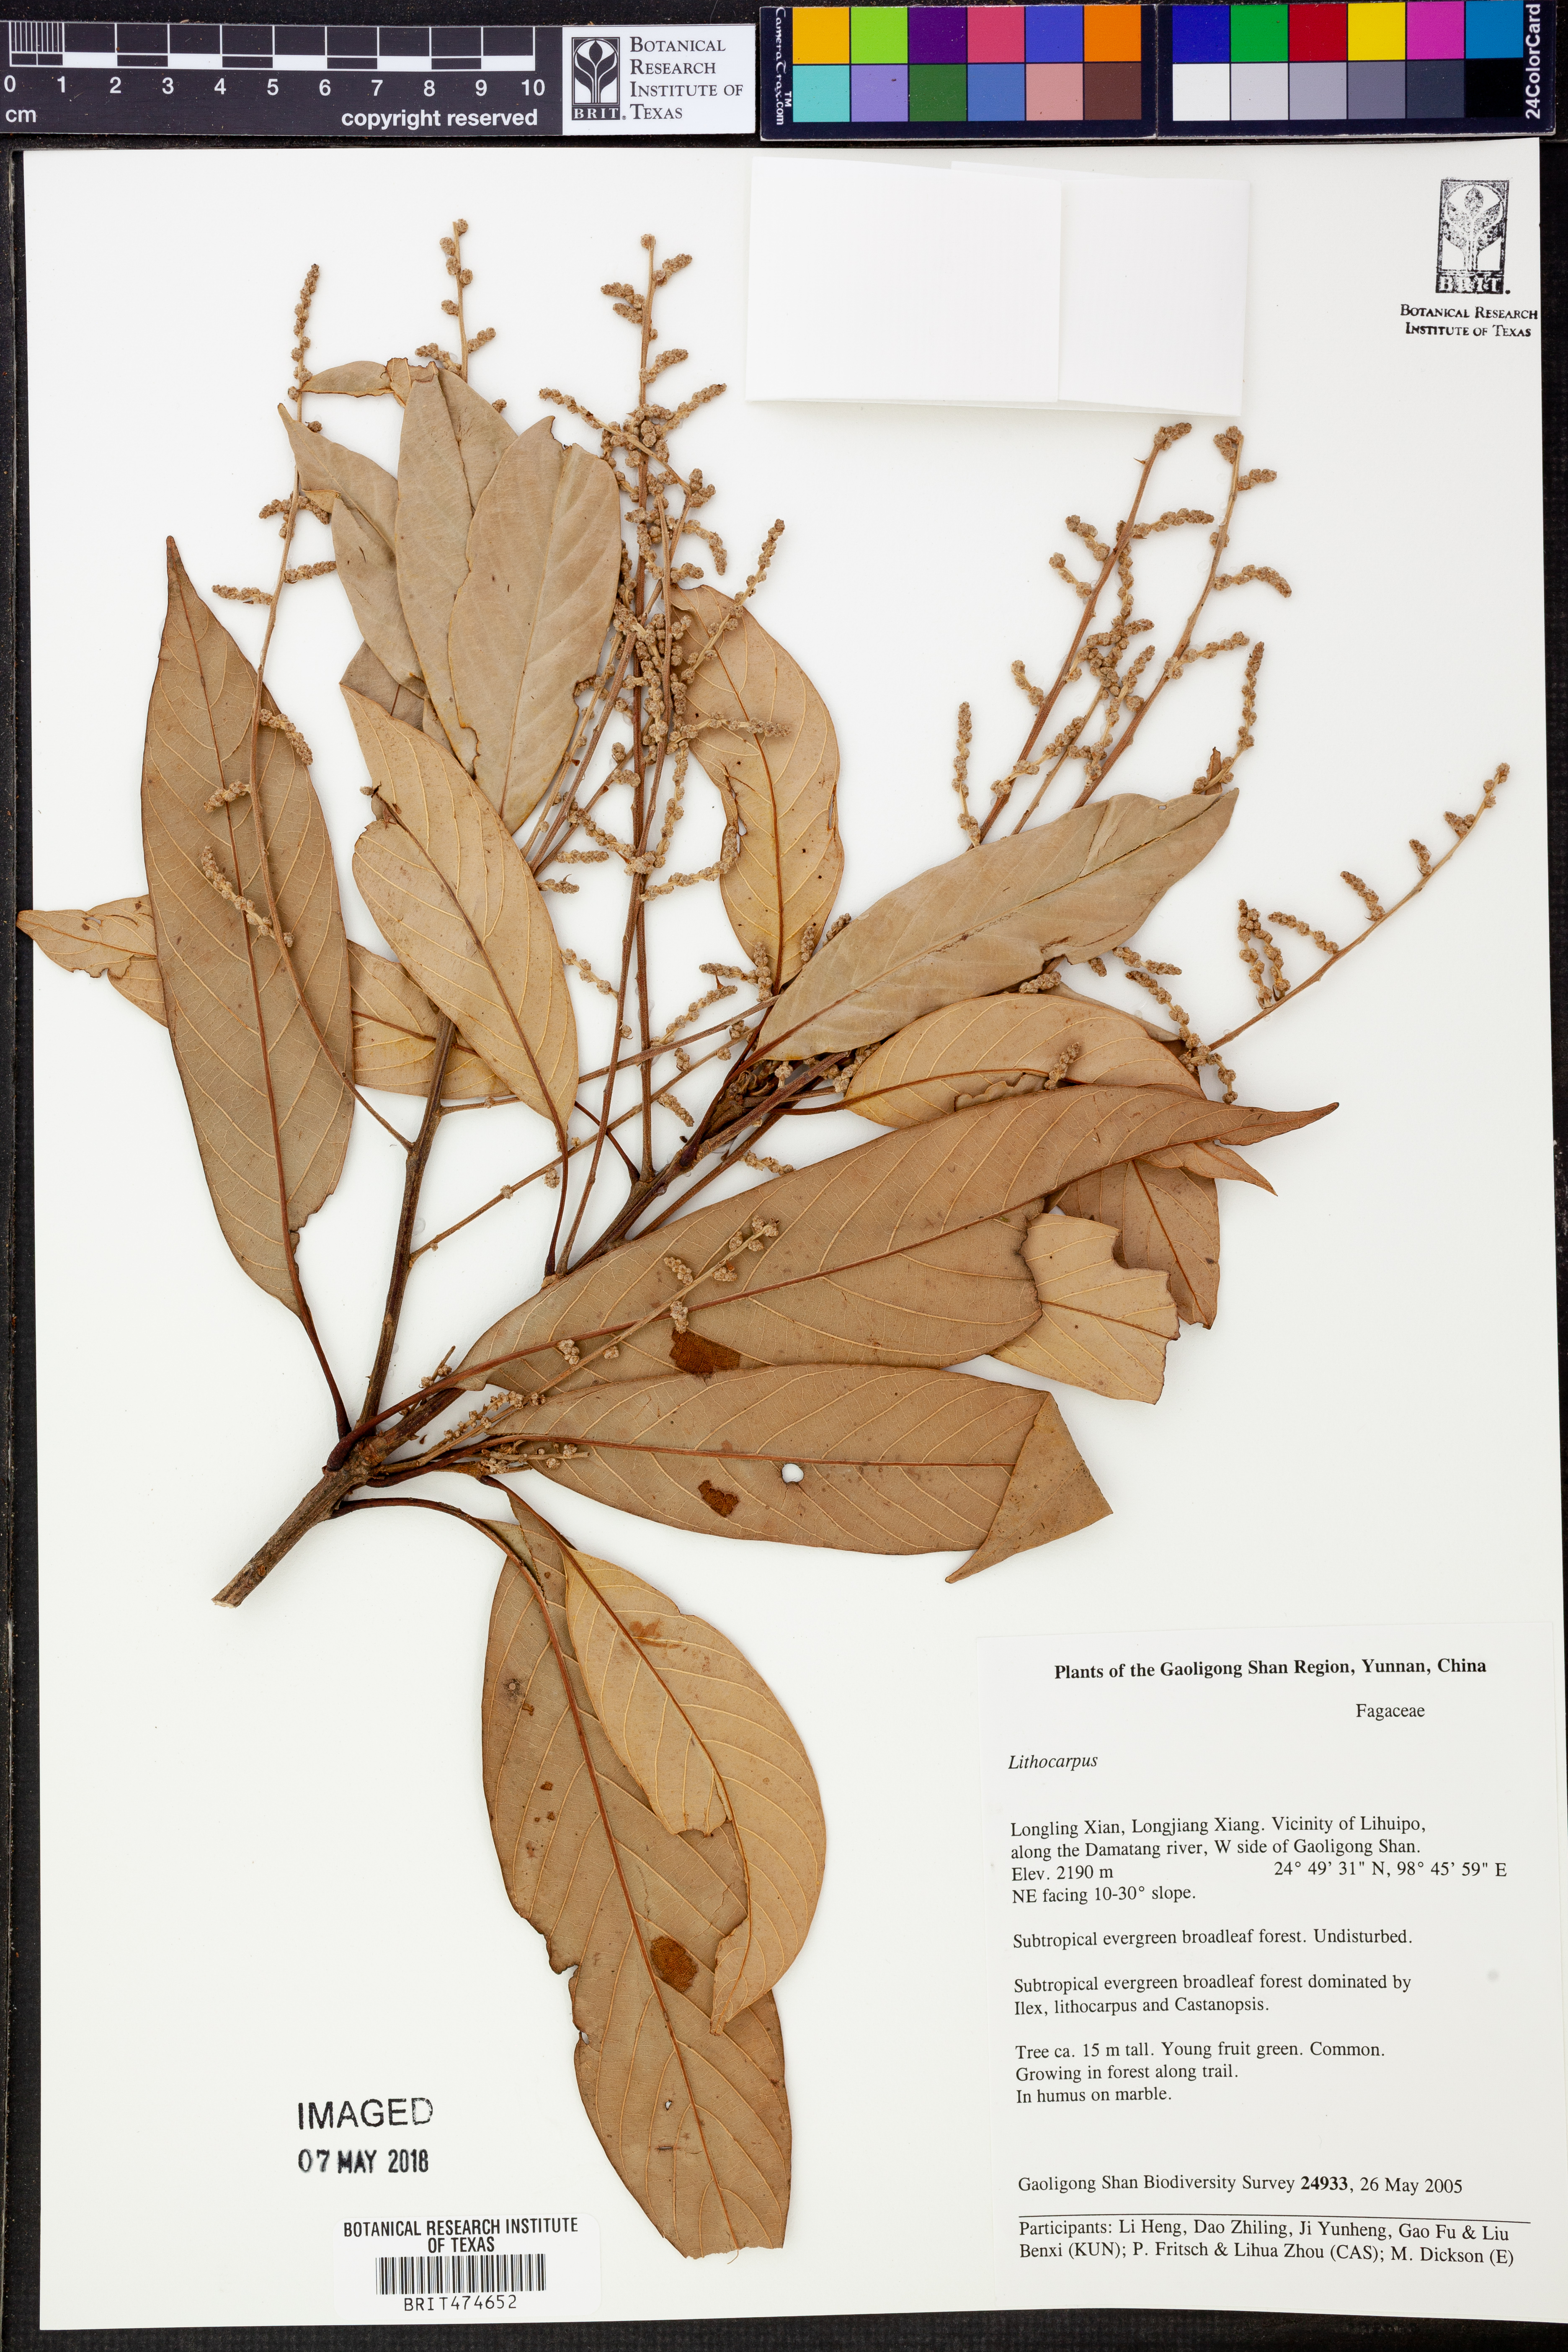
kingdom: Plantae
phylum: Tracheophyta
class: Magnoliopsida
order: Fagales
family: Fagaceae
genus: Lithocarpus
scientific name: Lithocarpus
